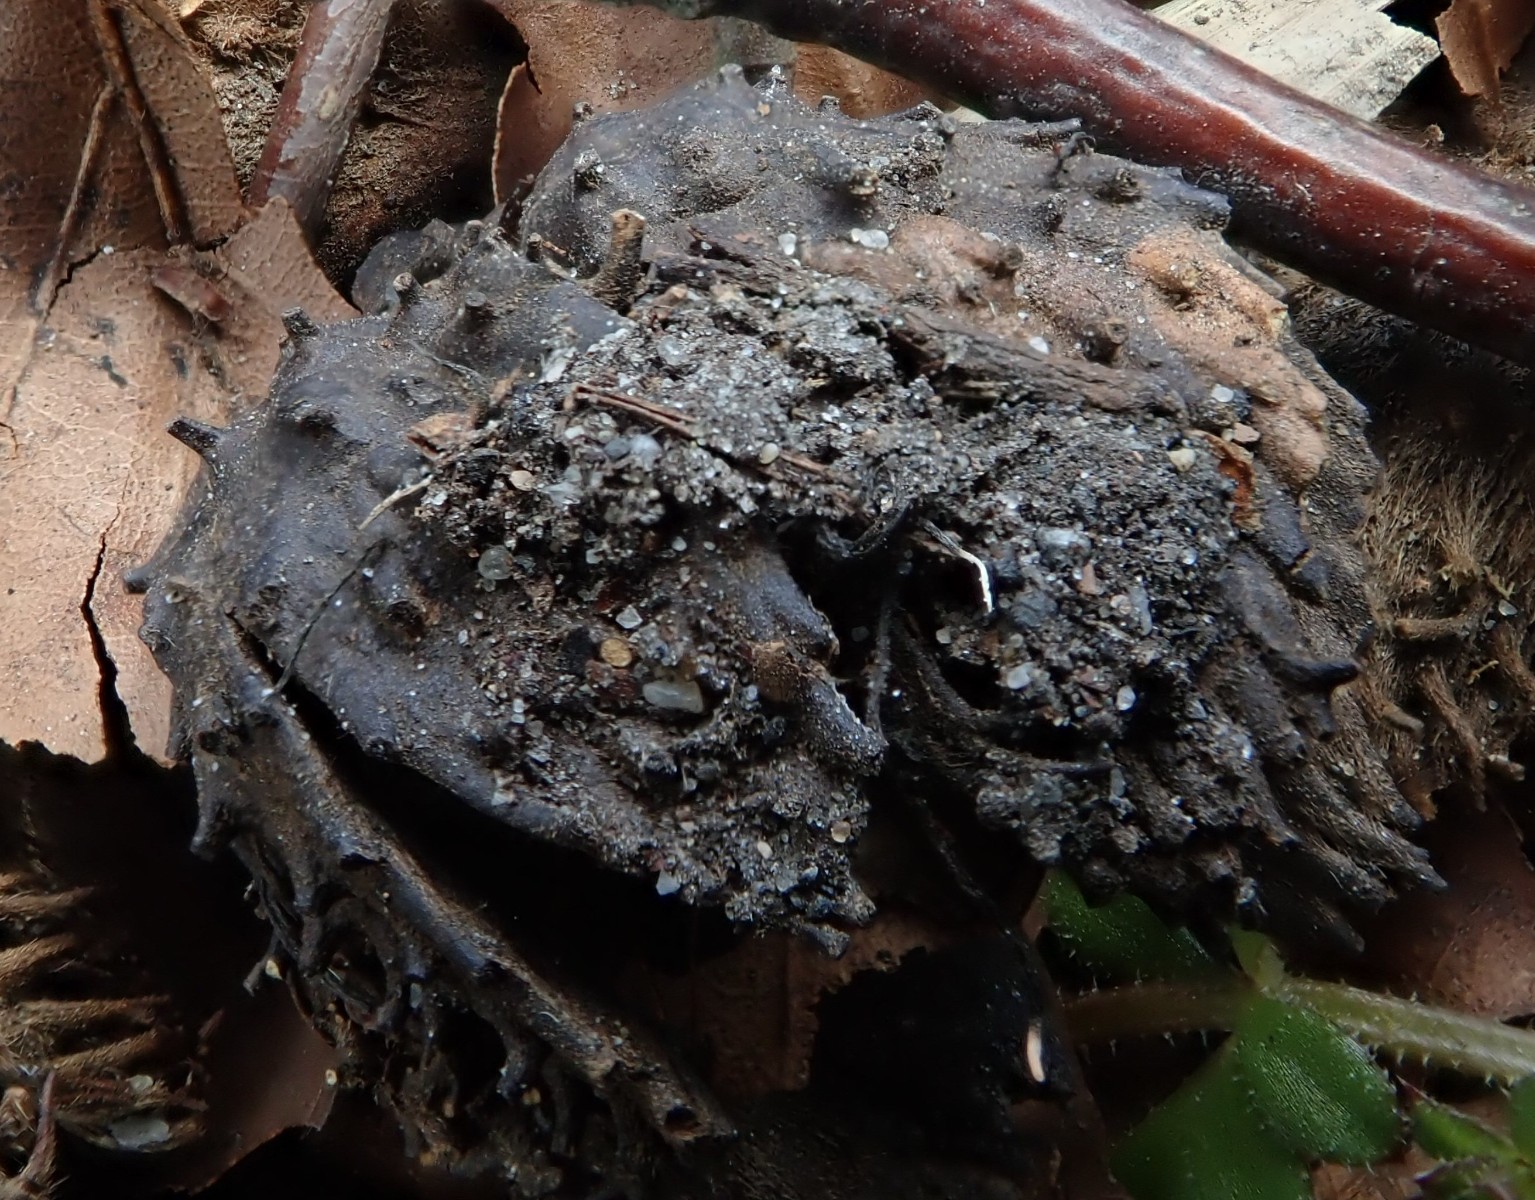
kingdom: Fungi
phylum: Ascomycota
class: Sordariomycetes
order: Xylariales
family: Xylariaceae
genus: Xylaria
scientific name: Xylaria carpophila
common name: bogskål-stødsvamp
